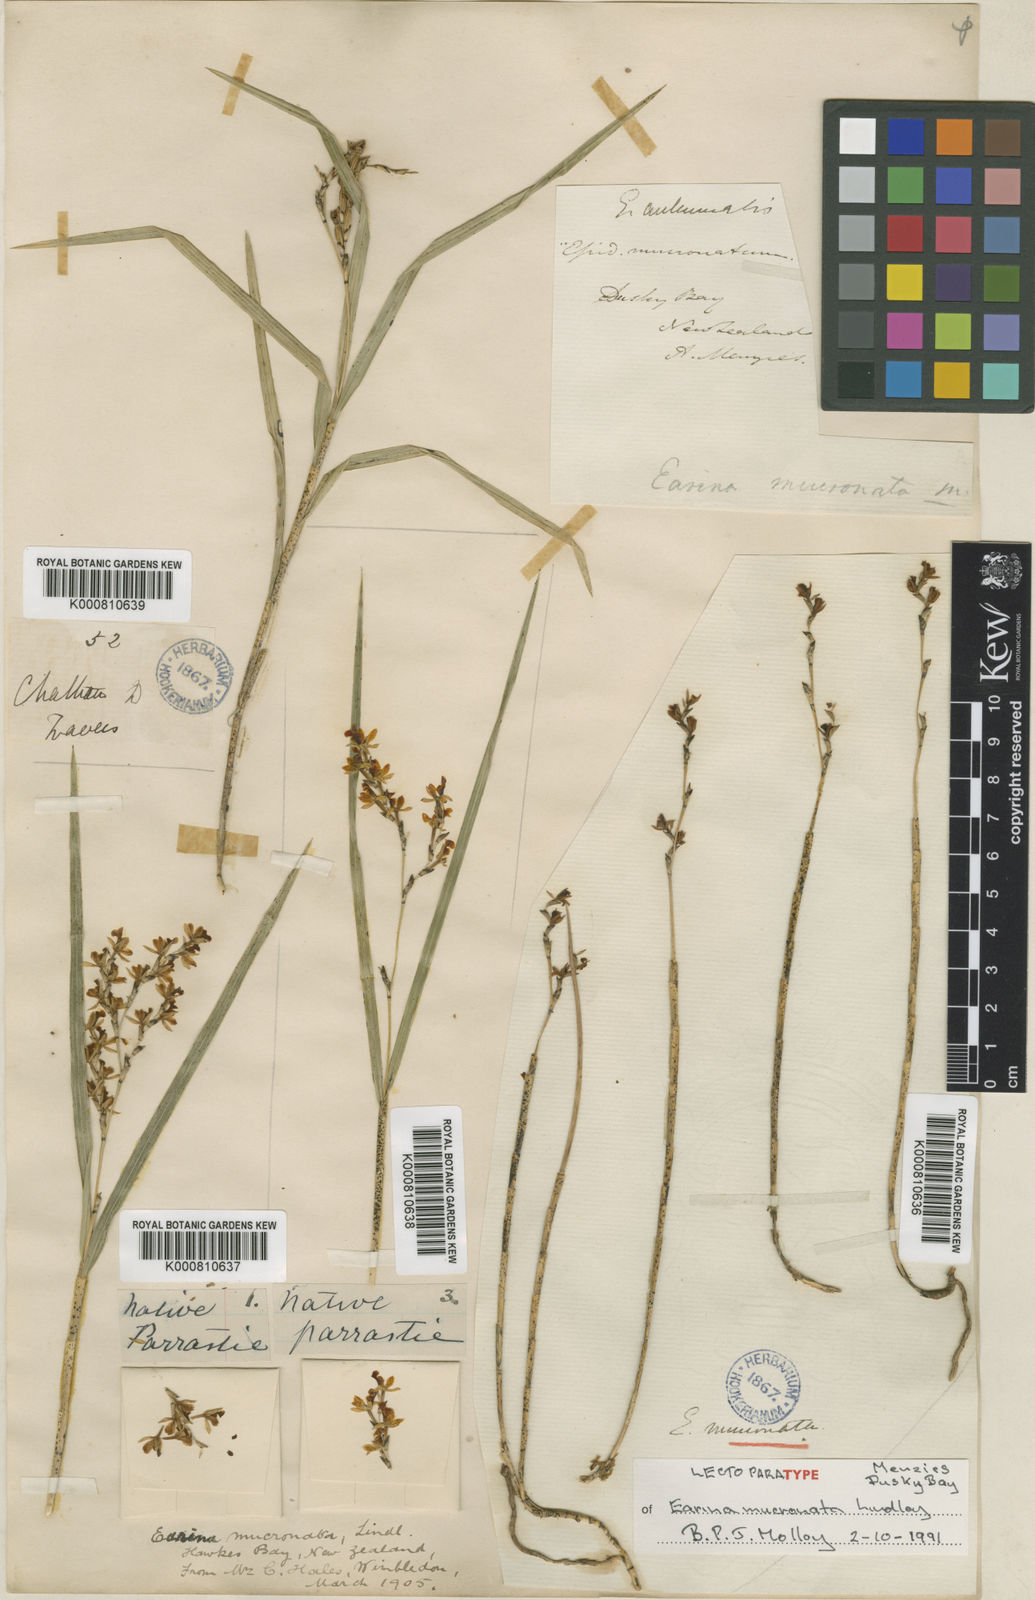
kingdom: Plantae
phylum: Tracheophyta
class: Liliopsida
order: Asparagales
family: Orchidaceae
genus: Earina
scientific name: Earina mucronata
